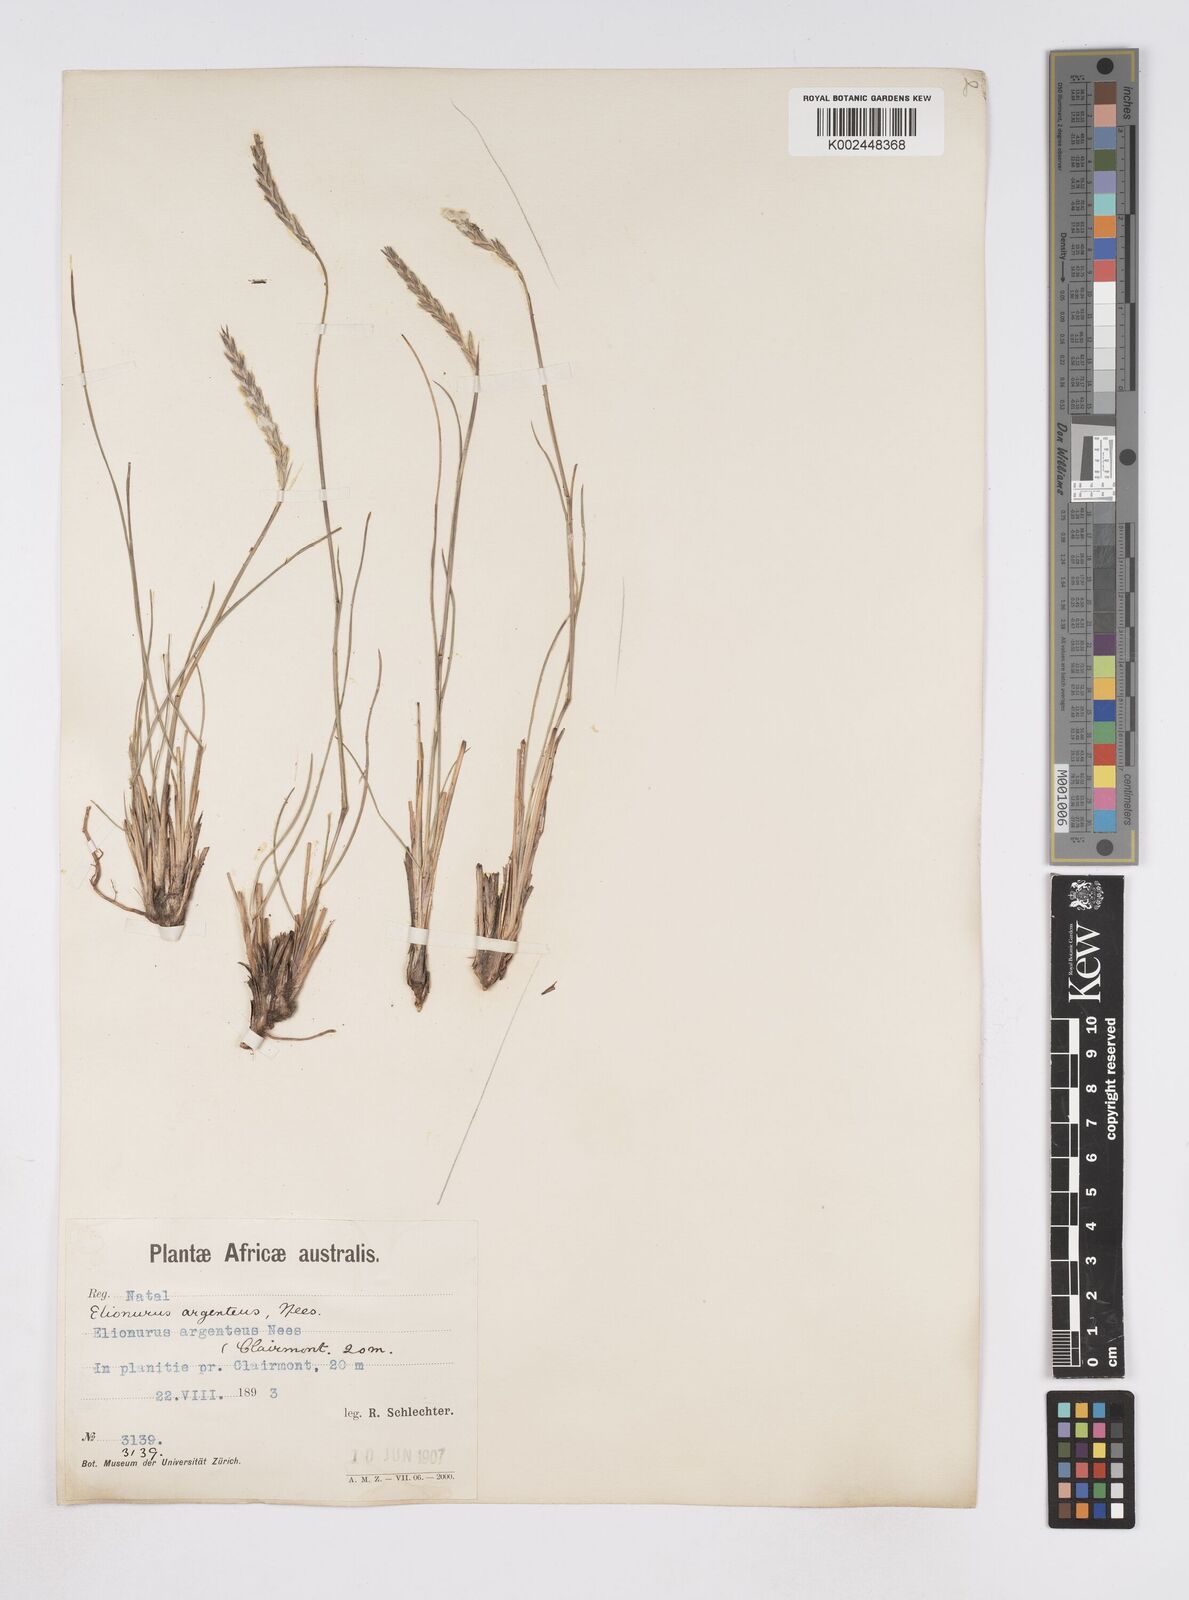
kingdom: Plantae
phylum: Tracheophyta
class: Liliopsida
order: Poales
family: Poaceae
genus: Elionurus
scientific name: Elionurus muticus
